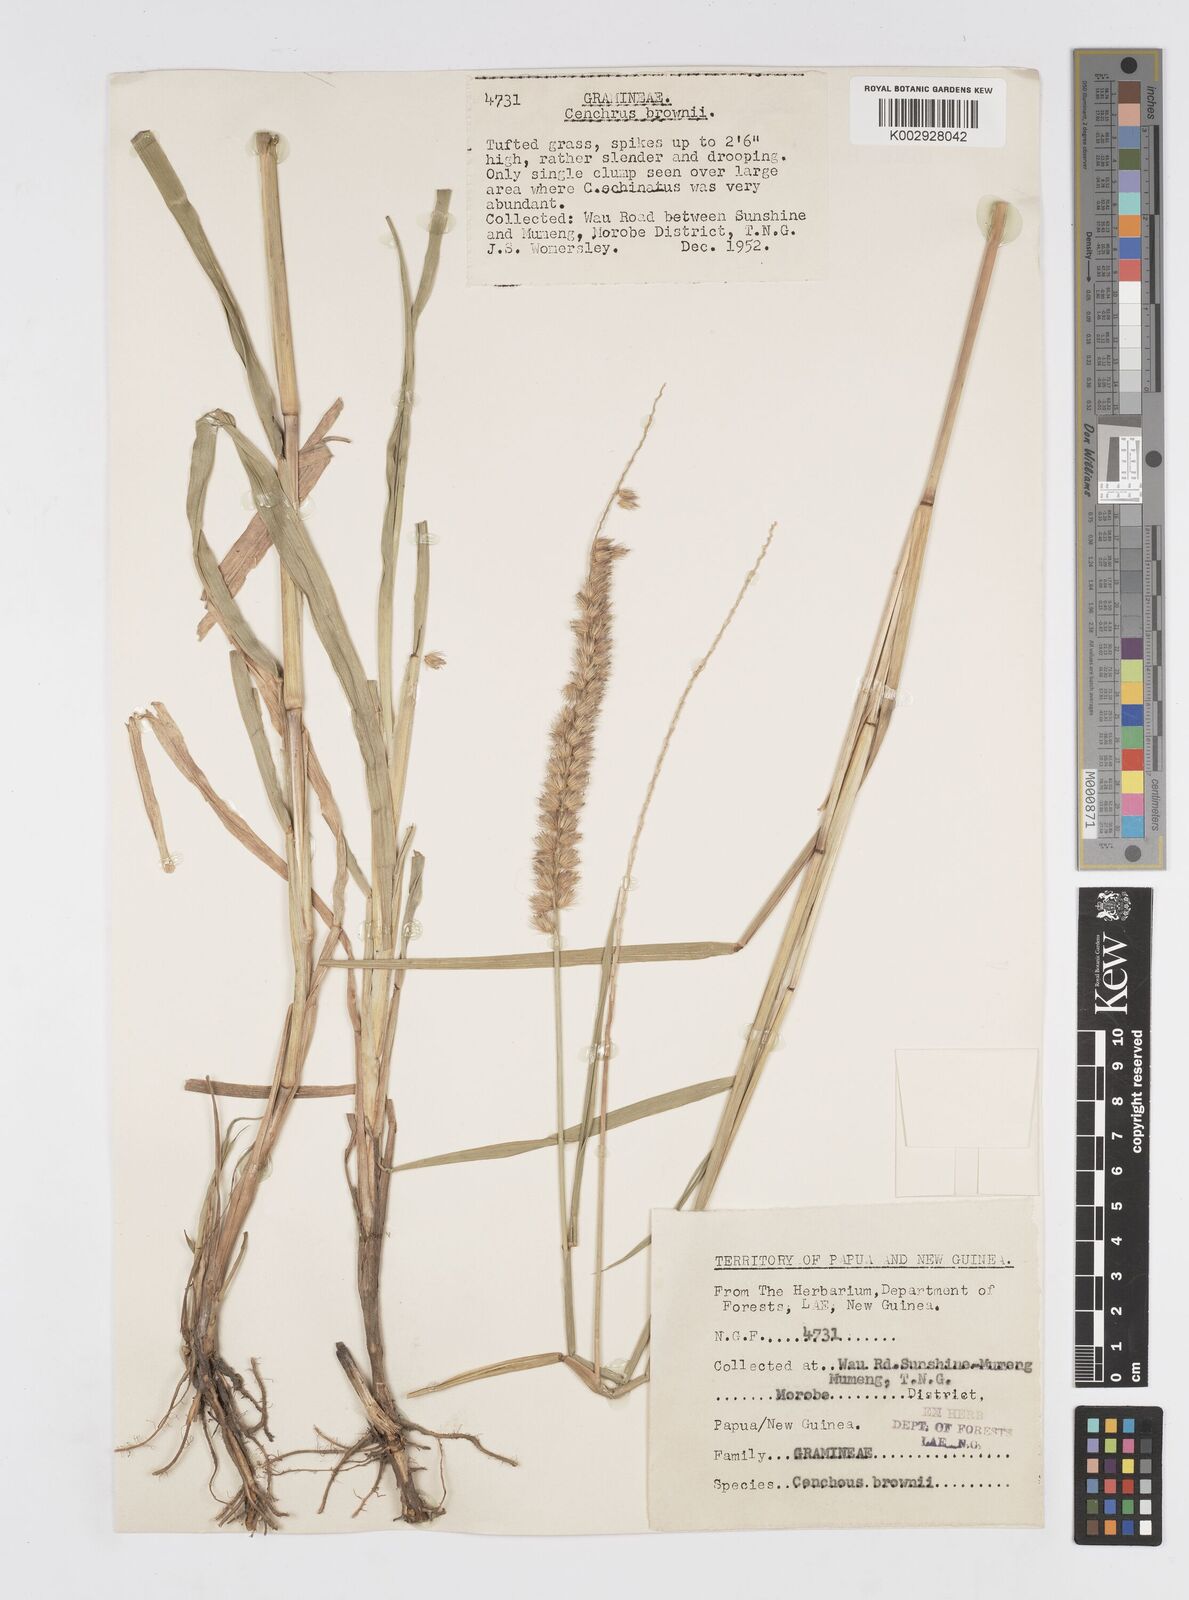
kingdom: Plantae
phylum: Tracheophyta
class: Liliopsida
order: Poales
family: Poaceae
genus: Cenchrus
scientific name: Cenchrus caliculatus
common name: Large bur grass
